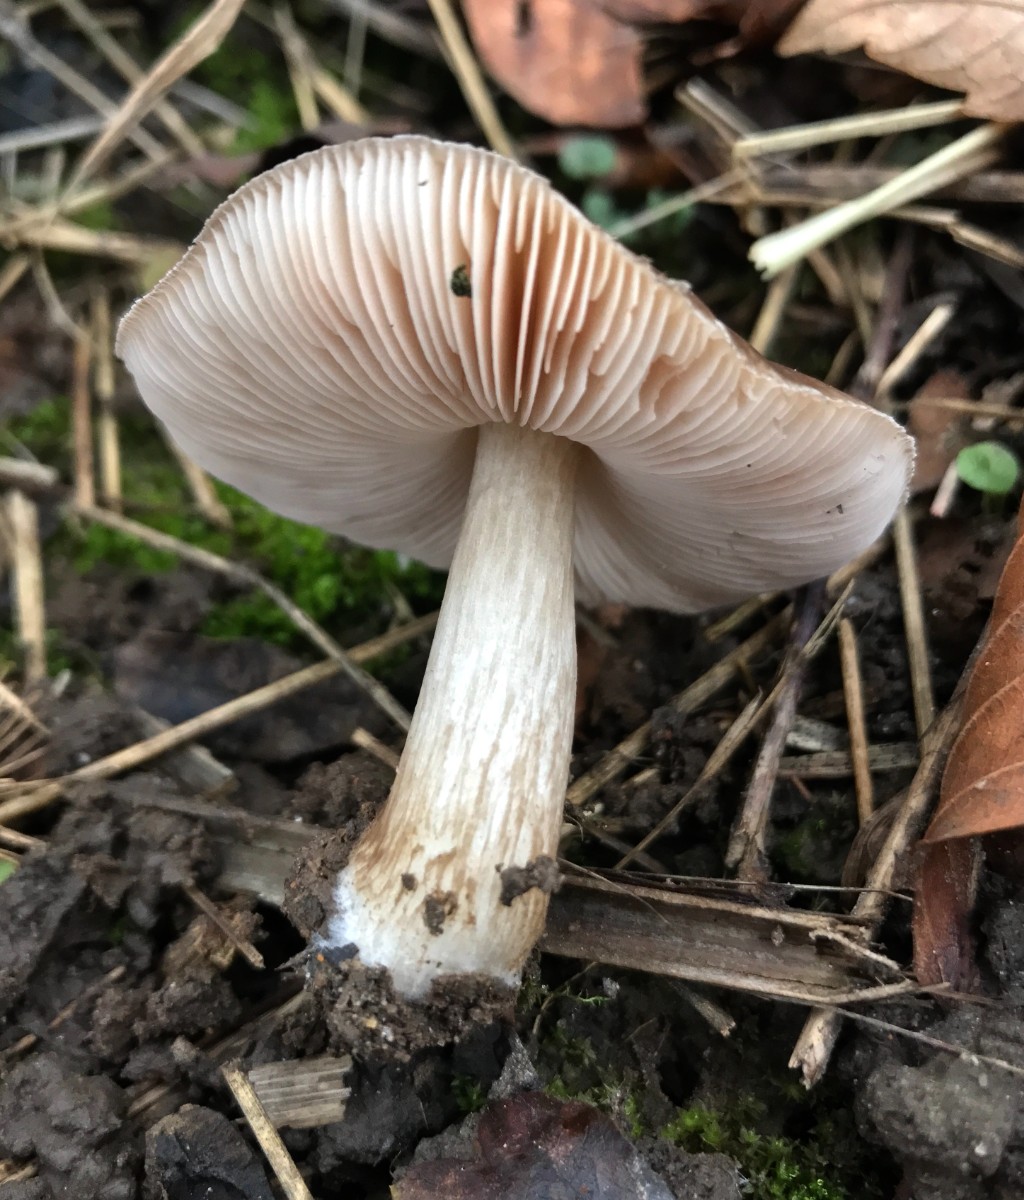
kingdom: Fungi
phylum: Basidiomycota
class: Agaricomycetes
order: Agaricales
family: Pluteaceae
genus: Pluteus
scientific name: Pluteus cervinus
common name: sodfarvet skærmhat
